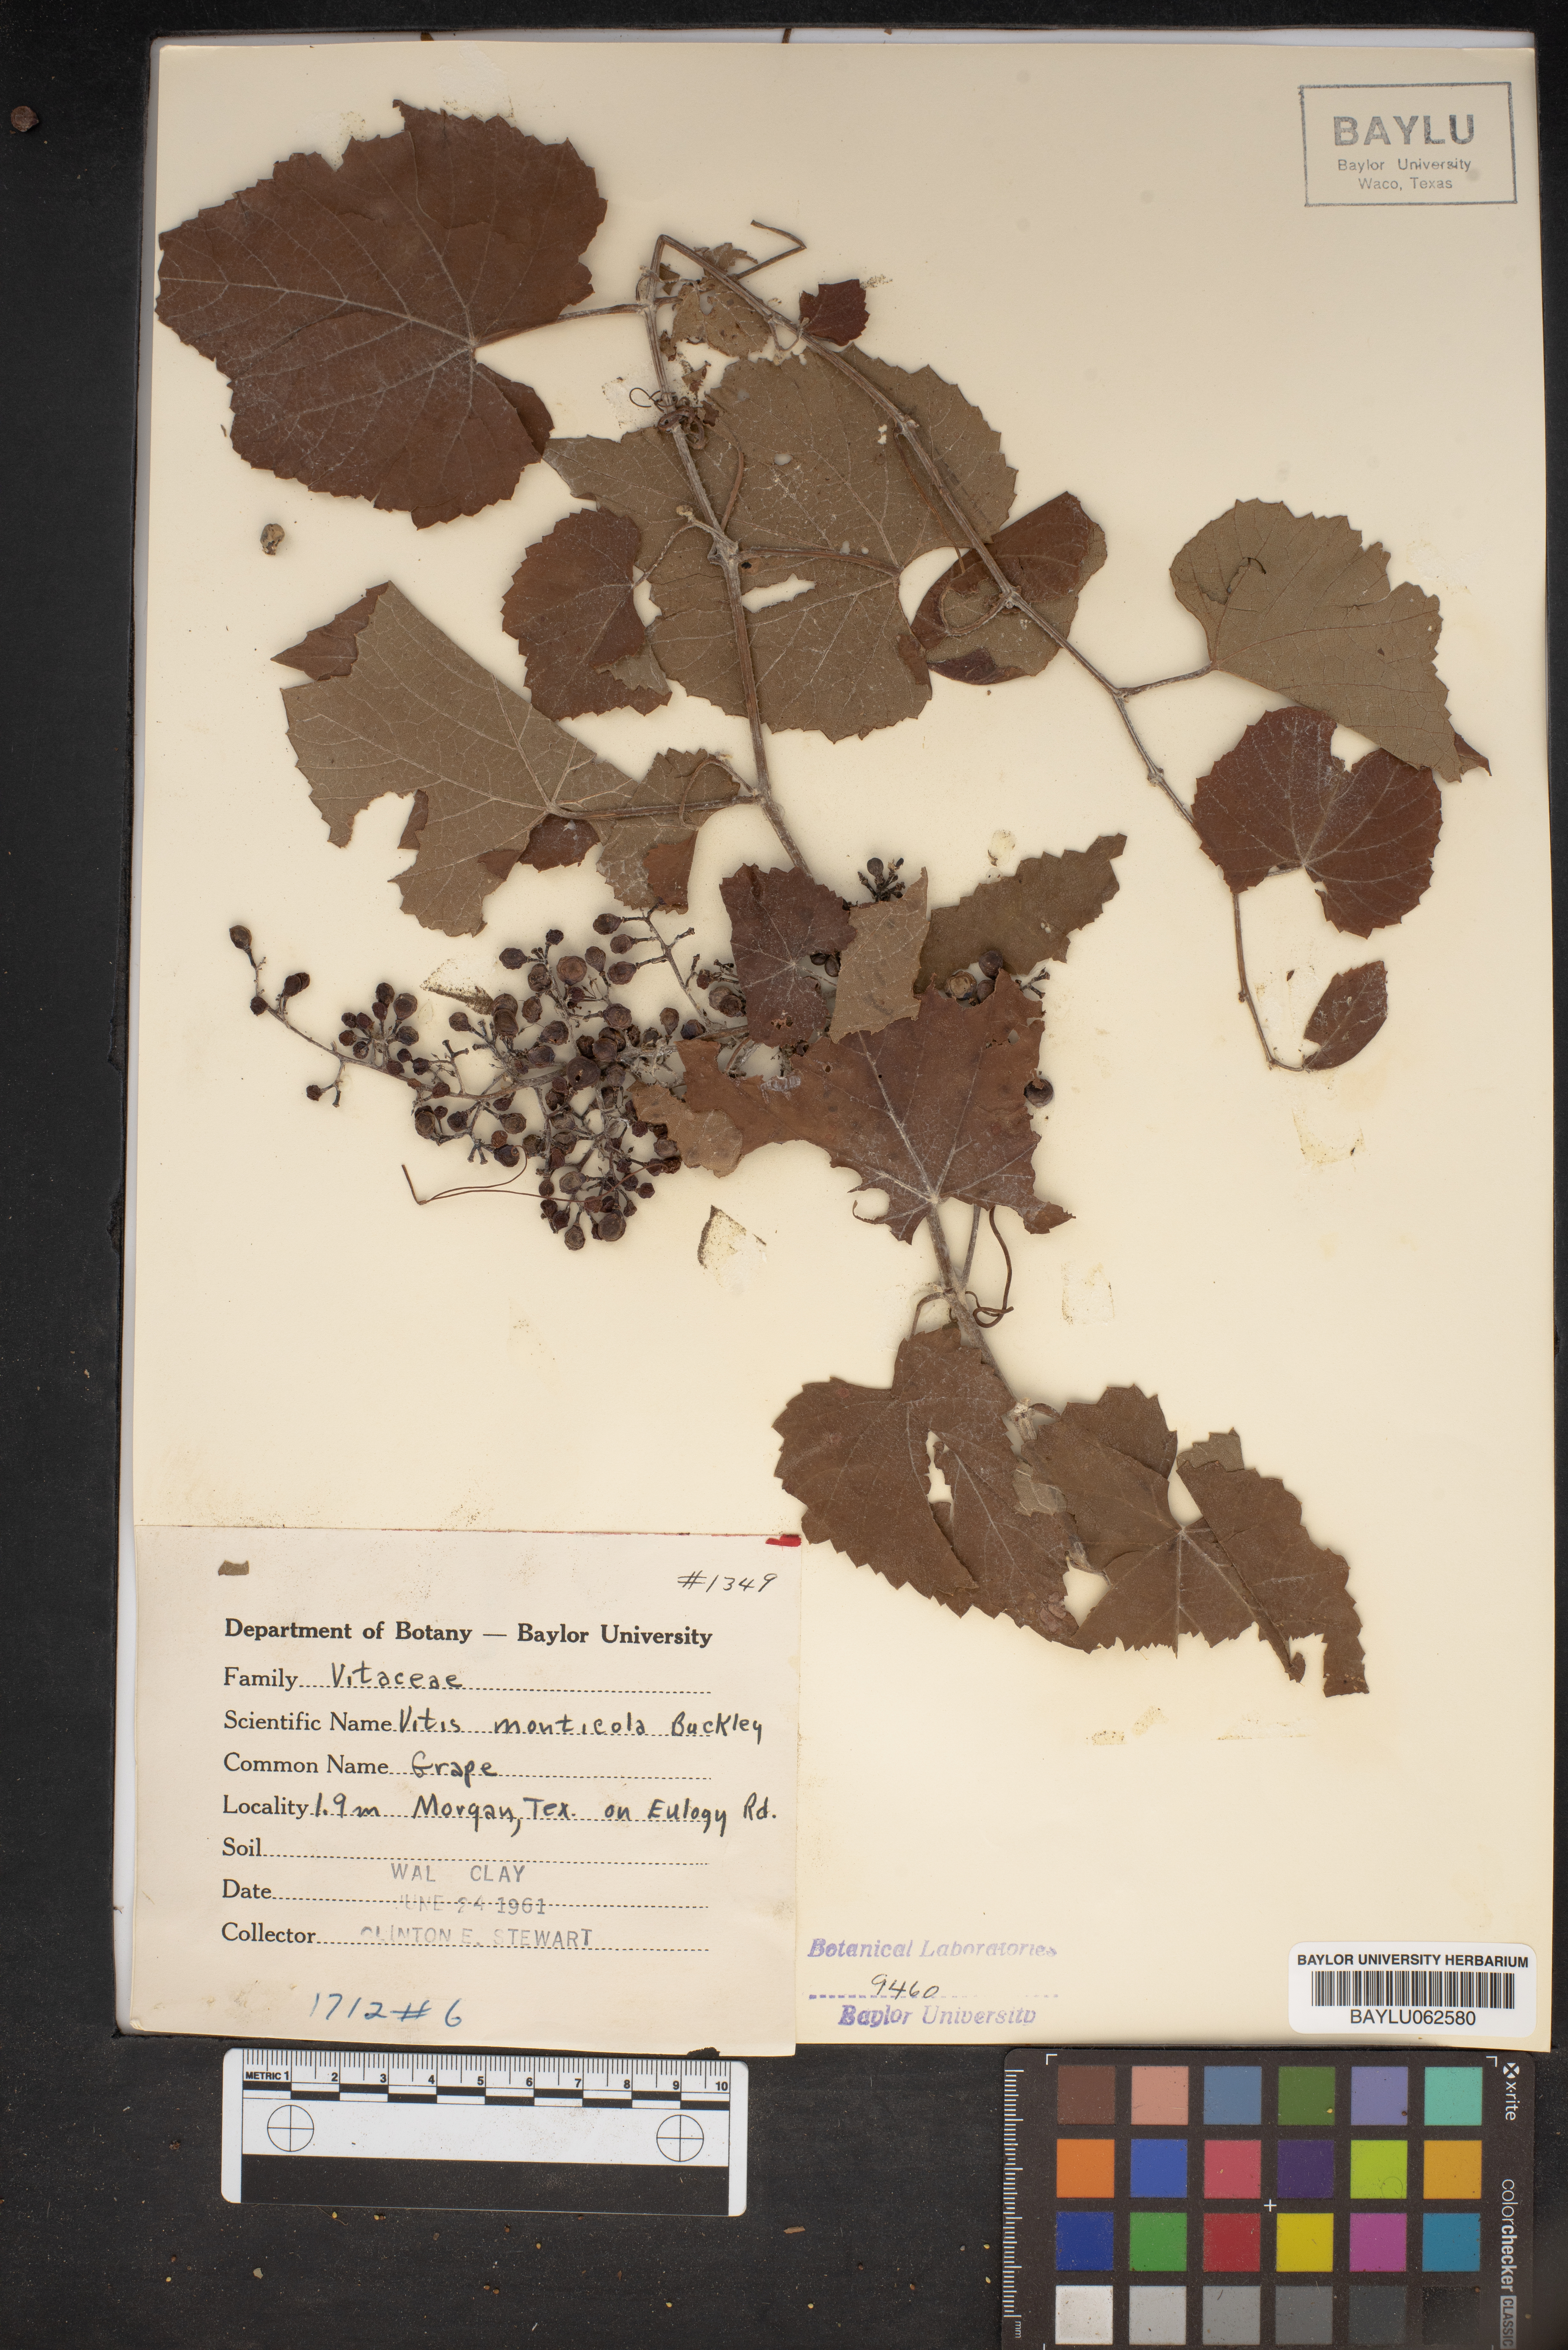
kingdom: Plantae
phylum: Tracheophyta
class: Magnoliopsida
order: Vitales
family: Vitaceae
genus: Vitis
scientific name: Vitis monticola
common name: Mountain grape
